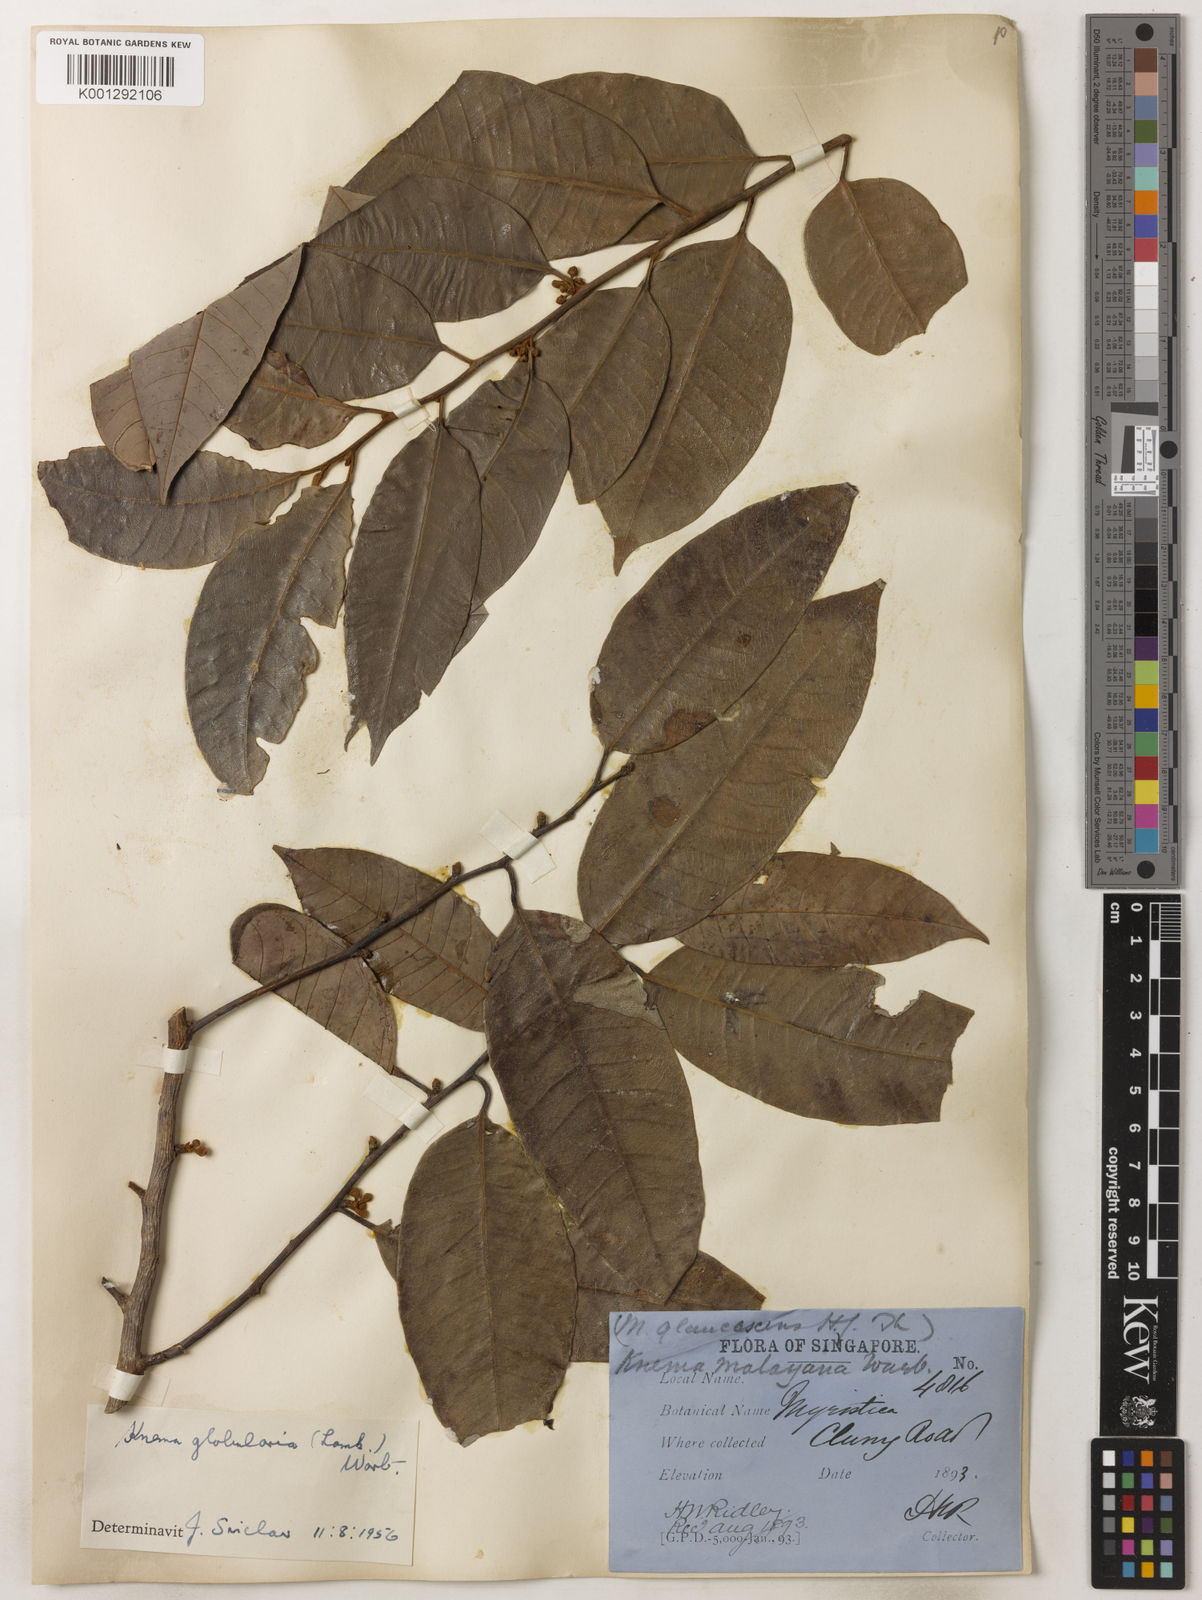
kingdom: Plantae
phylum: Tracheophyta
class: Magnoliopsida
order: Magnoliales
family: Myristicaceae
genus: Knema
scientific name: Knema globularia
